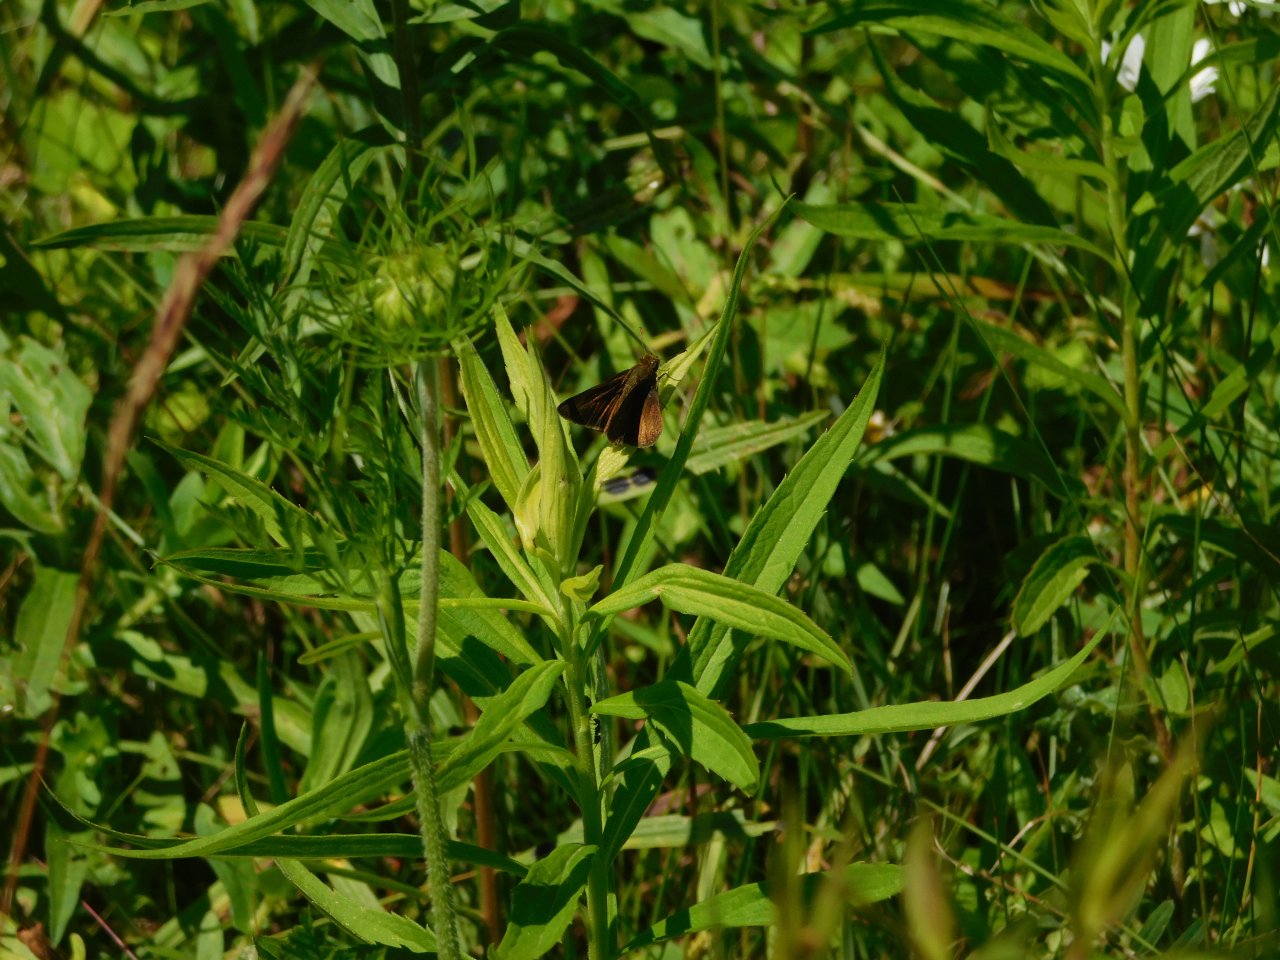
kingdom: Animalia
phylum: Arthropoda
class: Insecta
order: Lepidoptera
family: Hesperiidae
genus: Euphyes
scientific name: Euphyes vestris
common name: Dun Skipper
